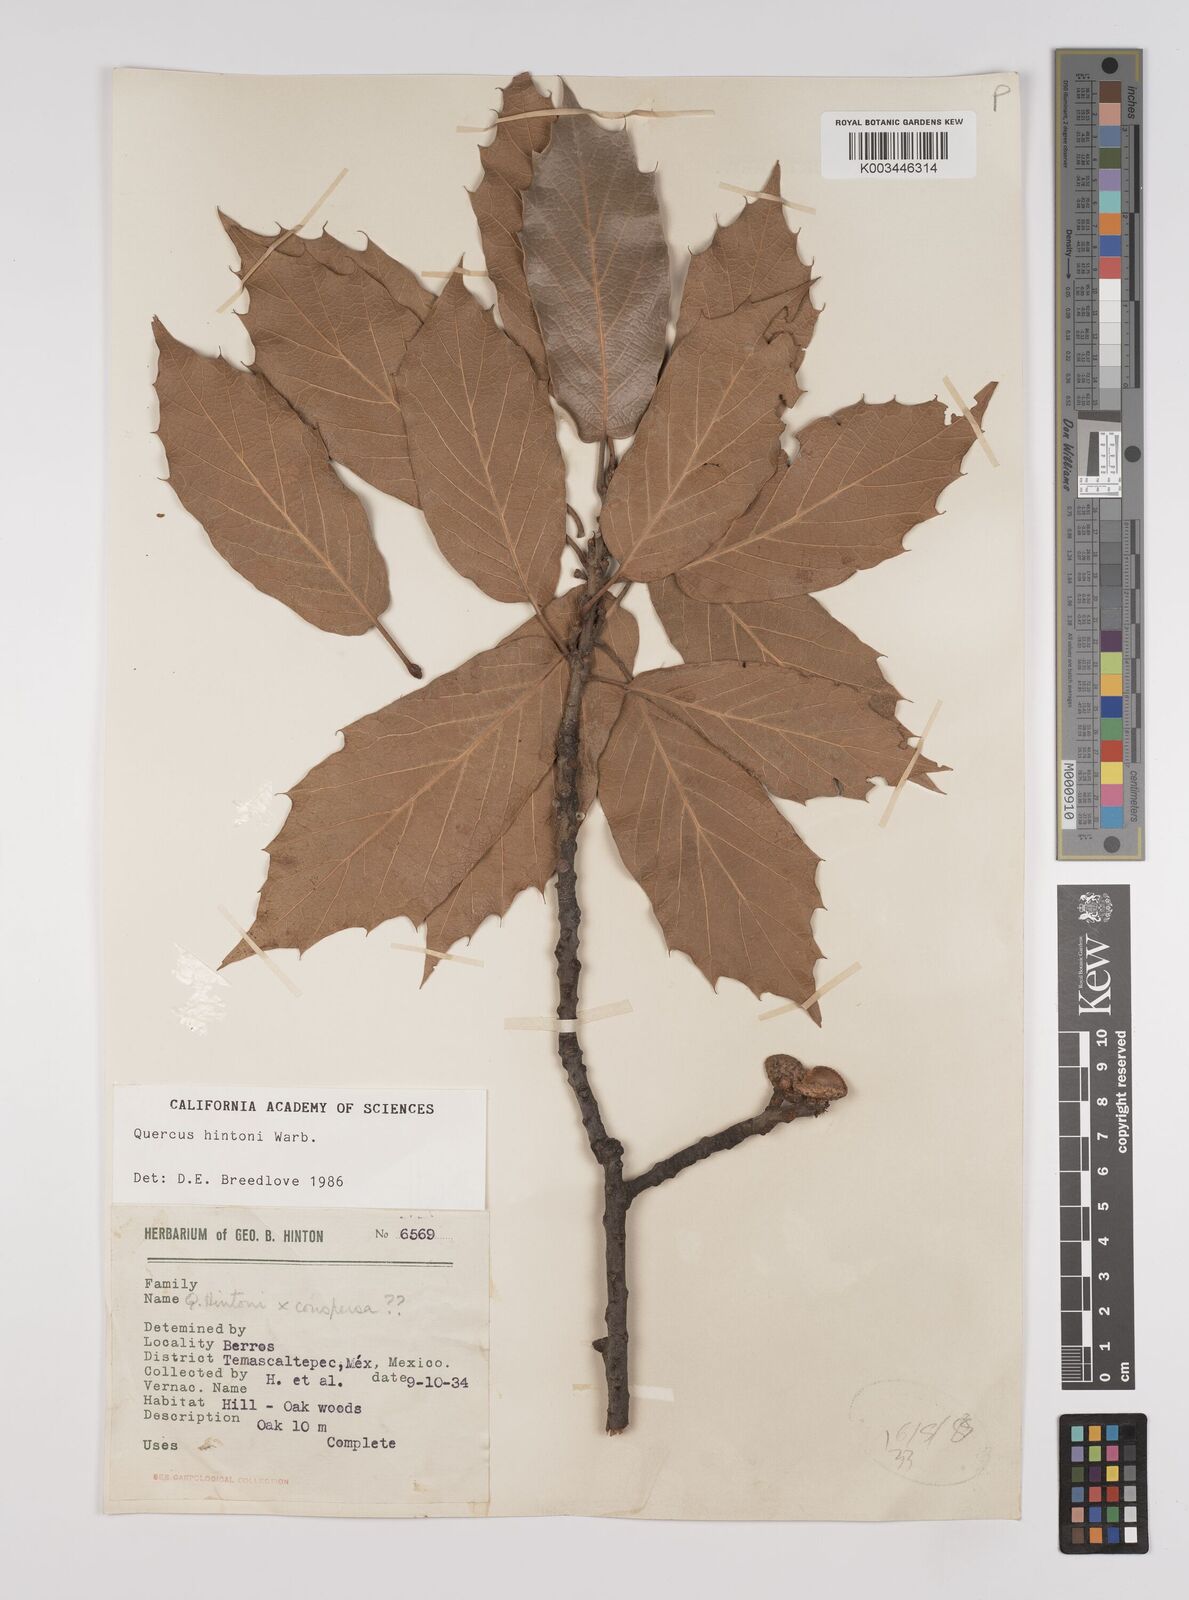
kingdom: Plantae
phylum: Tracheophyta
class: Magnoliopsida
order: Fagales
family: Fagaceae
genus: Quercus
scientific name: Quercus hintonii
